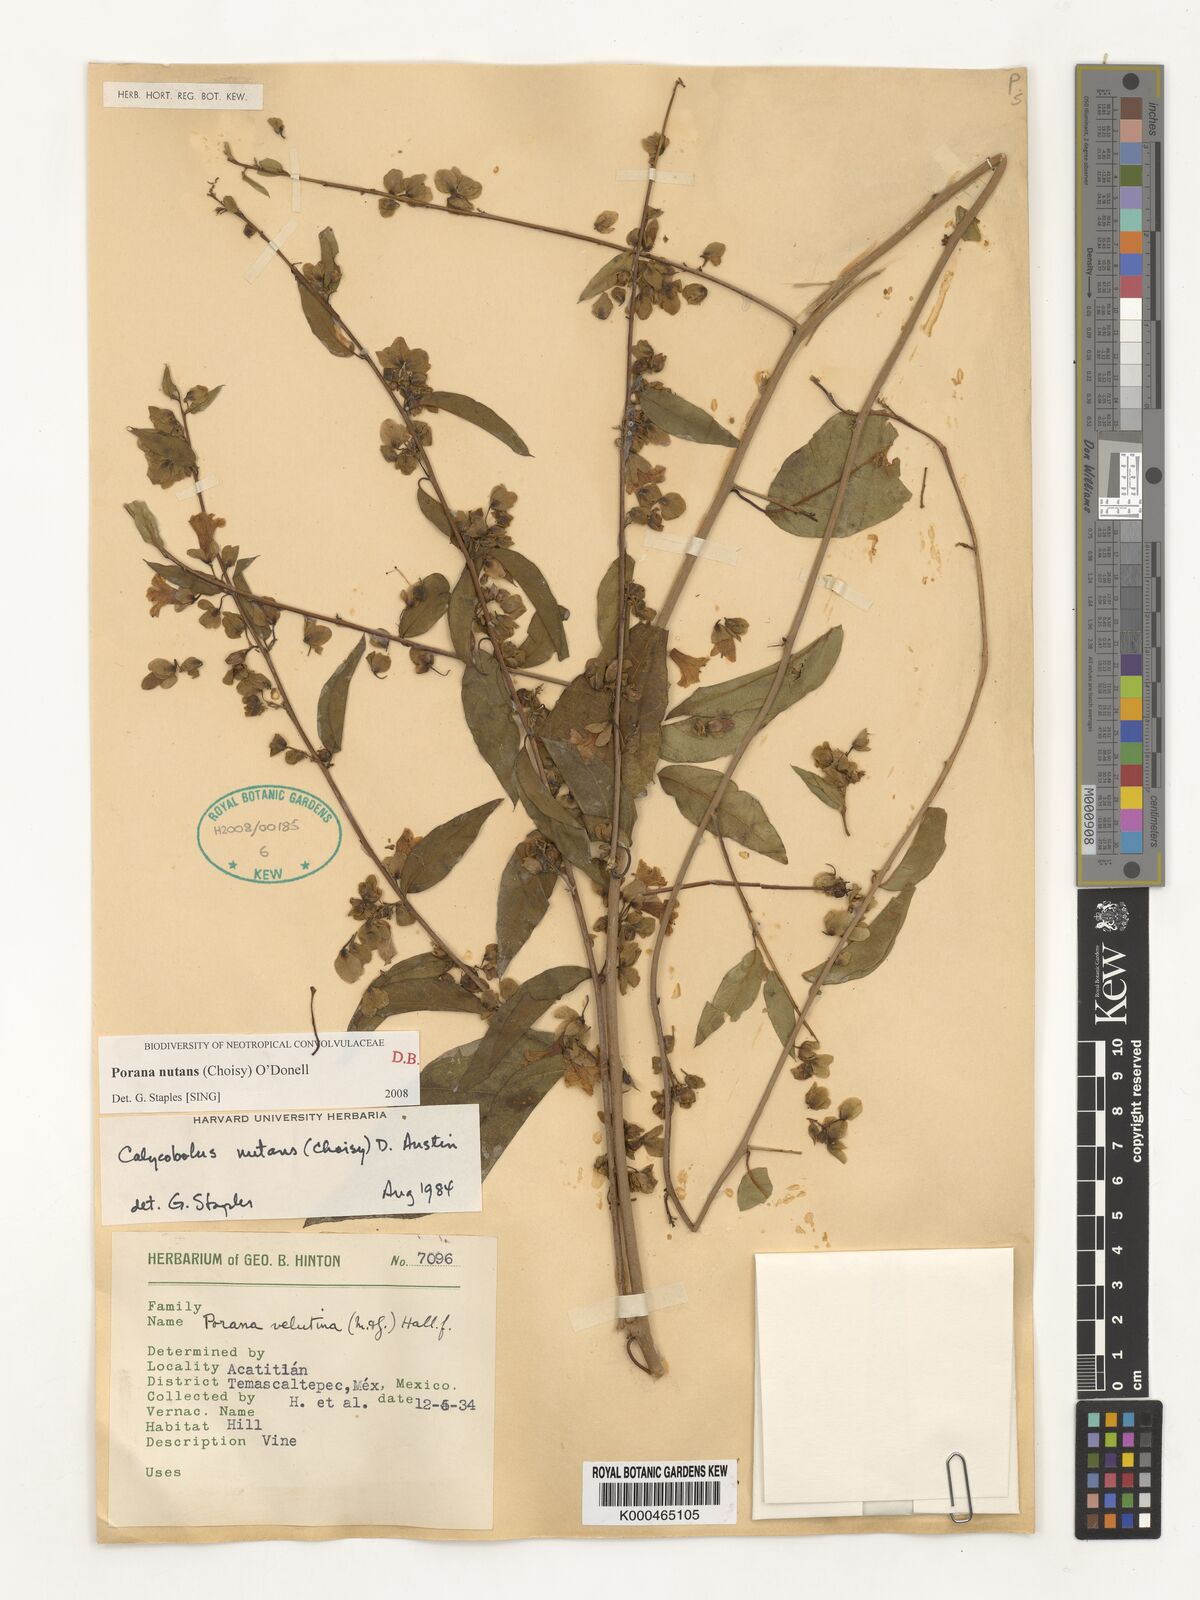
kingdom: Plantae
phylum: Tracheophyta
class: Magnoliopsida
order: Solanales
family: Convolvulaceae
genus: Calycobolus
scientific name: Calycobolus
